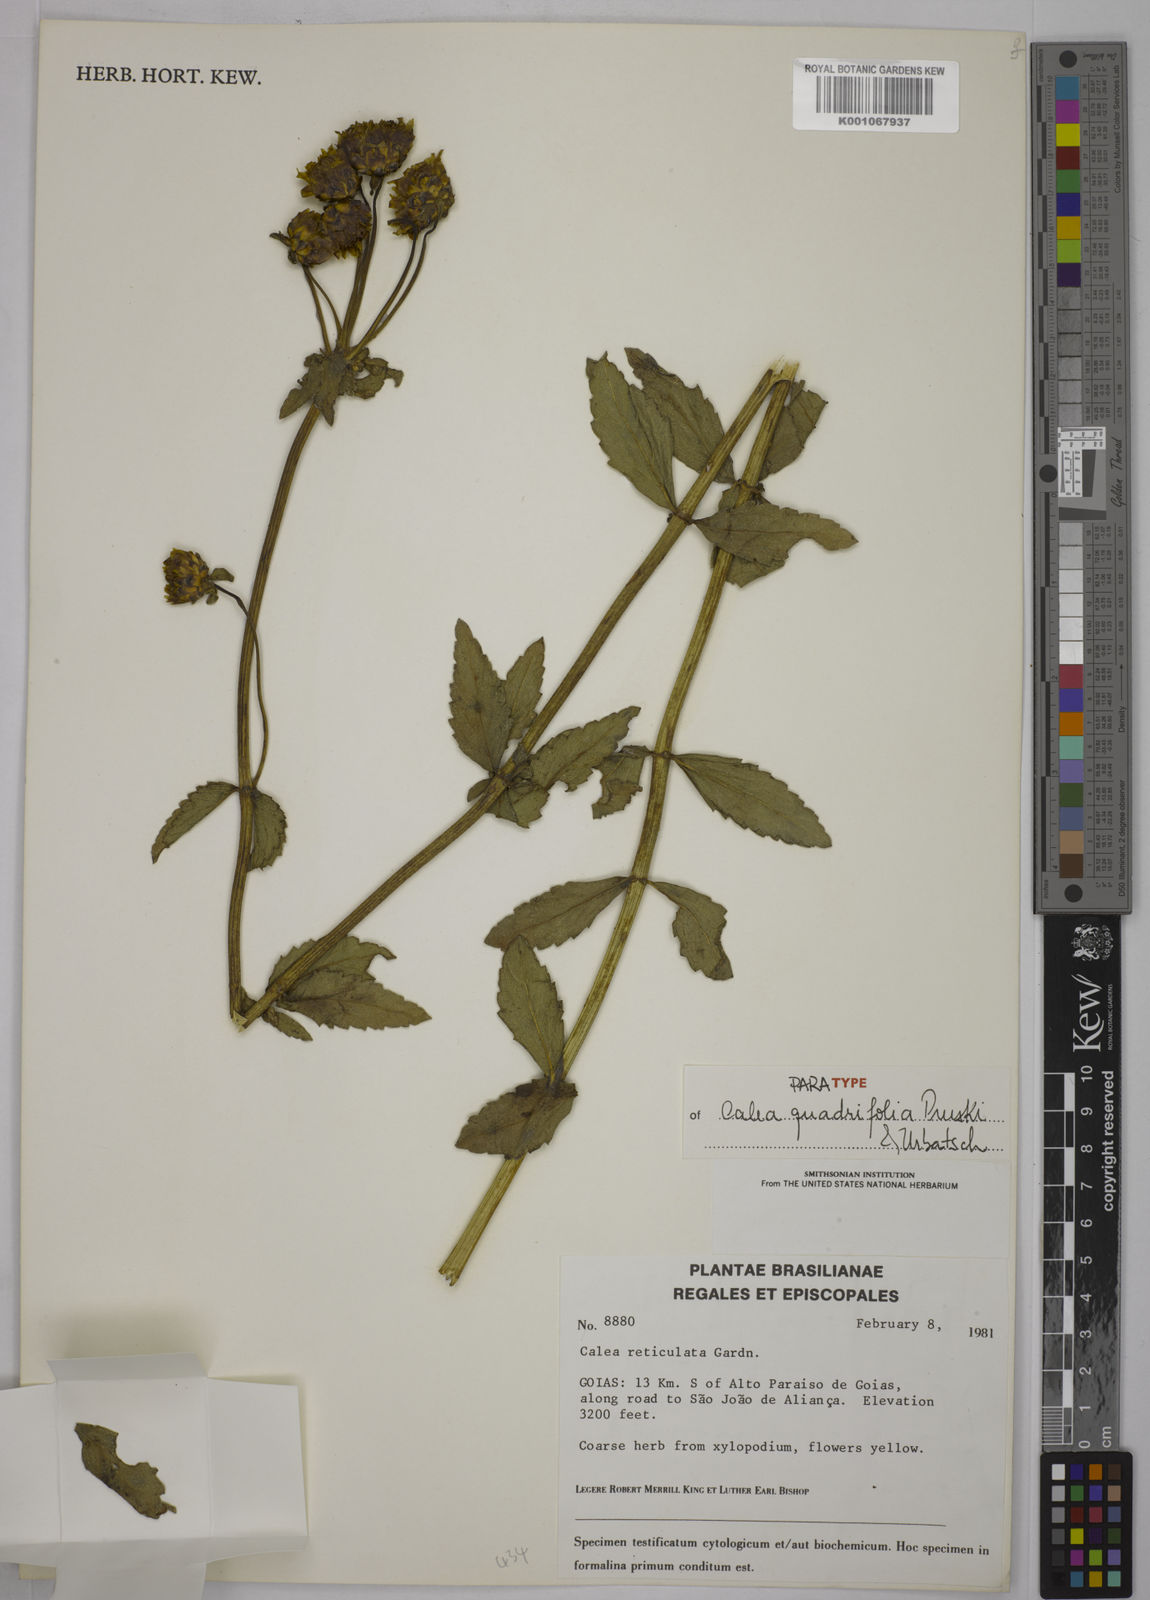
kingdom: Plantae
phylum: Tracheophyta
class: Magnoliopsida
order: Asterales
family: Asteraceae
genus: Calea
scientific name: Calea quadrifolia
